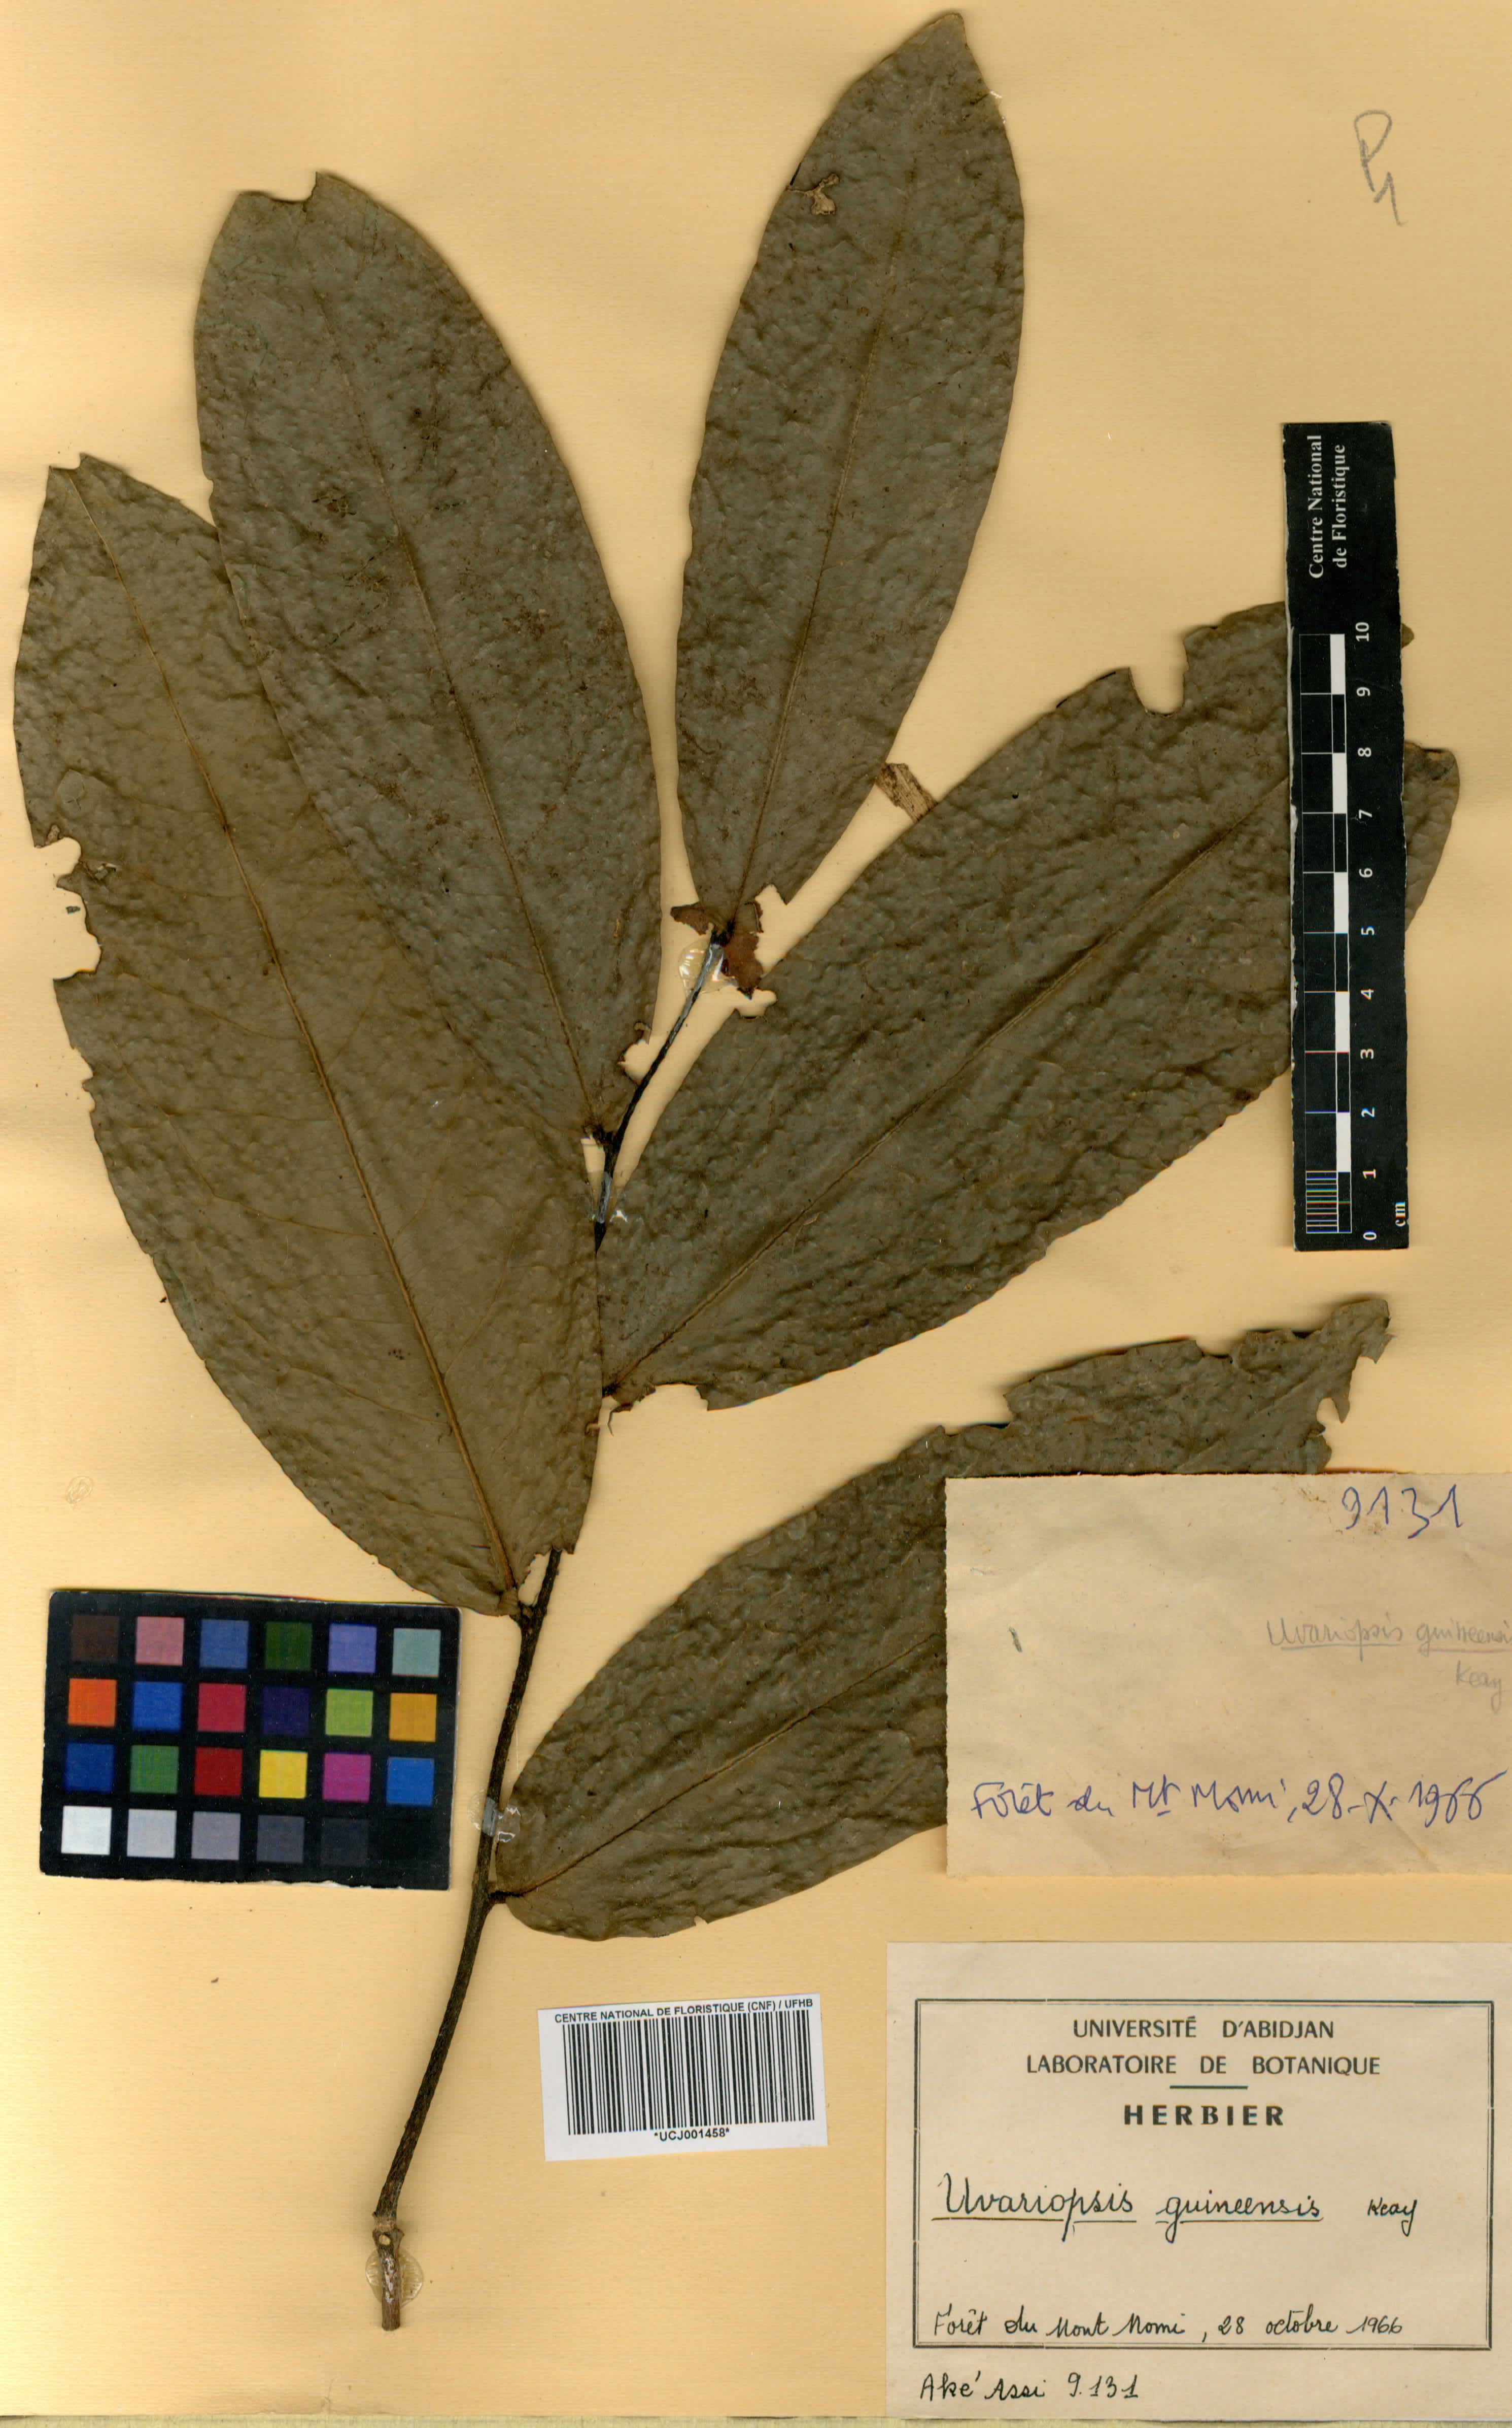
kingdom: Plantae
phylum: Tracheophyta
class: Magnoliopsida
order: Magnoliales
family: Annonaceae
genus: Uvariopsis
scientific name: Uvariopsis guineensis
